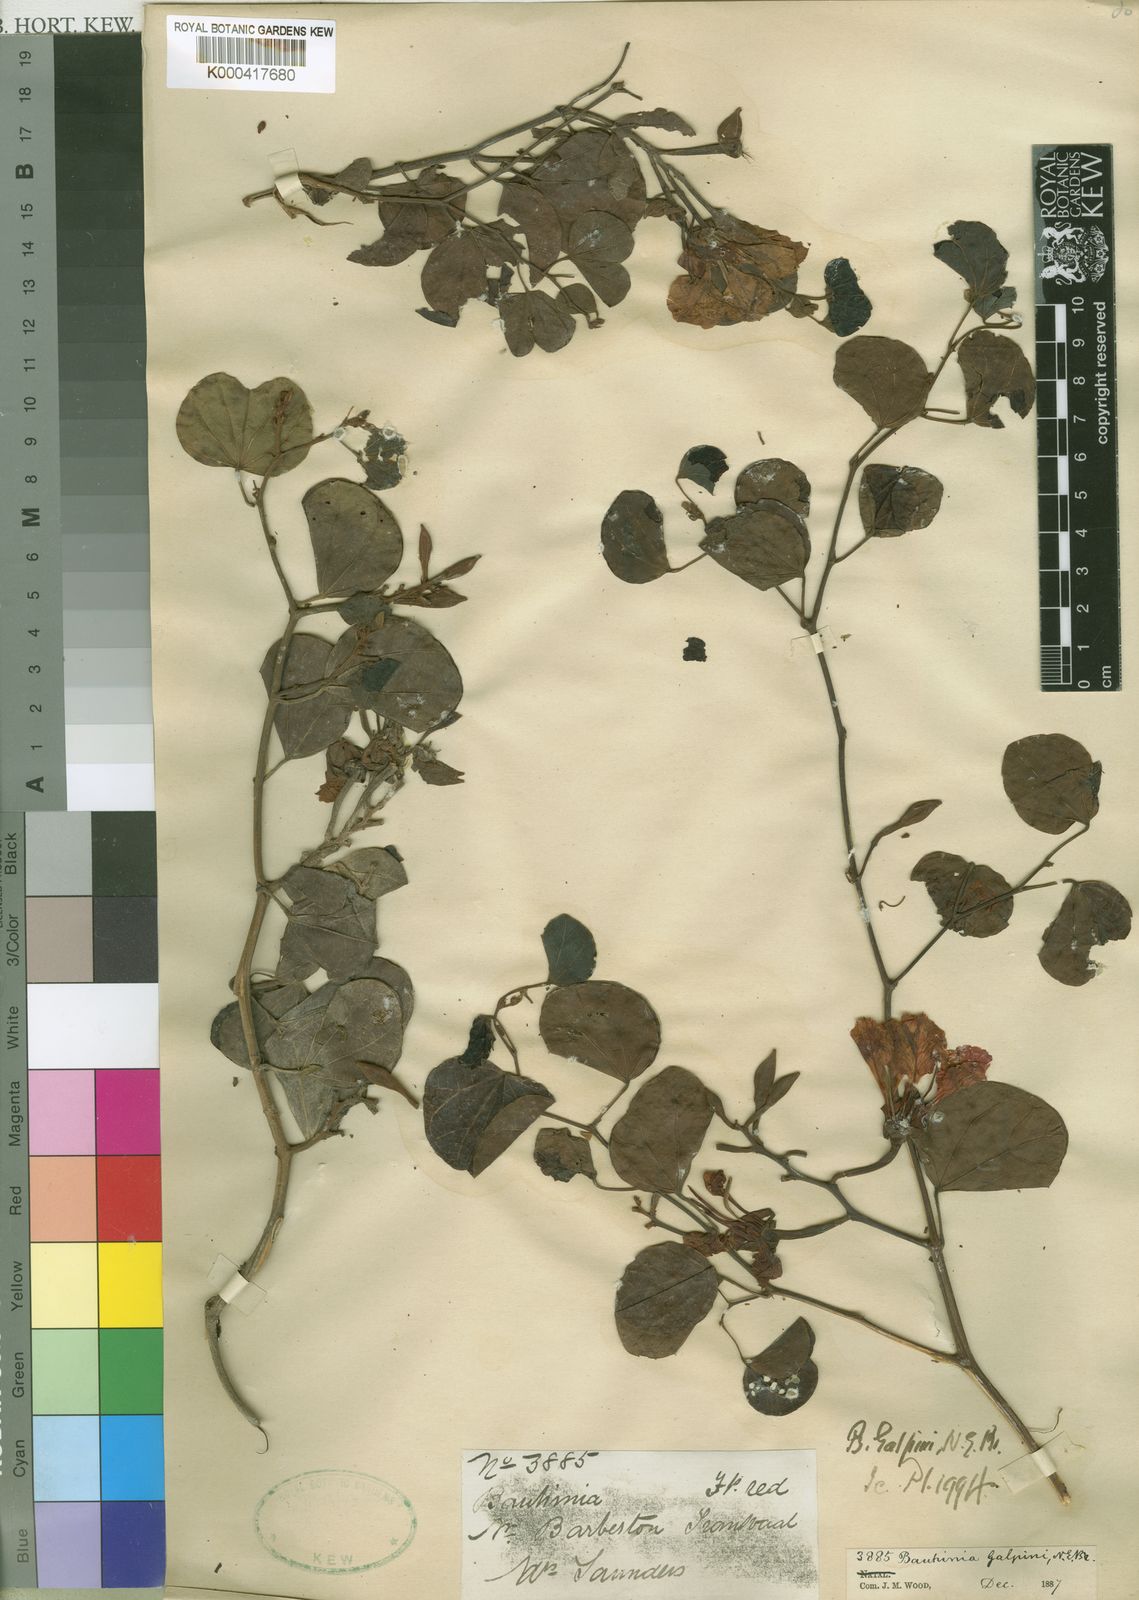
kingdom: Plantae
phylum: Tracheophyta
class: Magnoliopsida
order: Fabales
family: Fabaceae
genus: Bauhinia
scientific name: Bauhinia galpinii
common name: African plume
